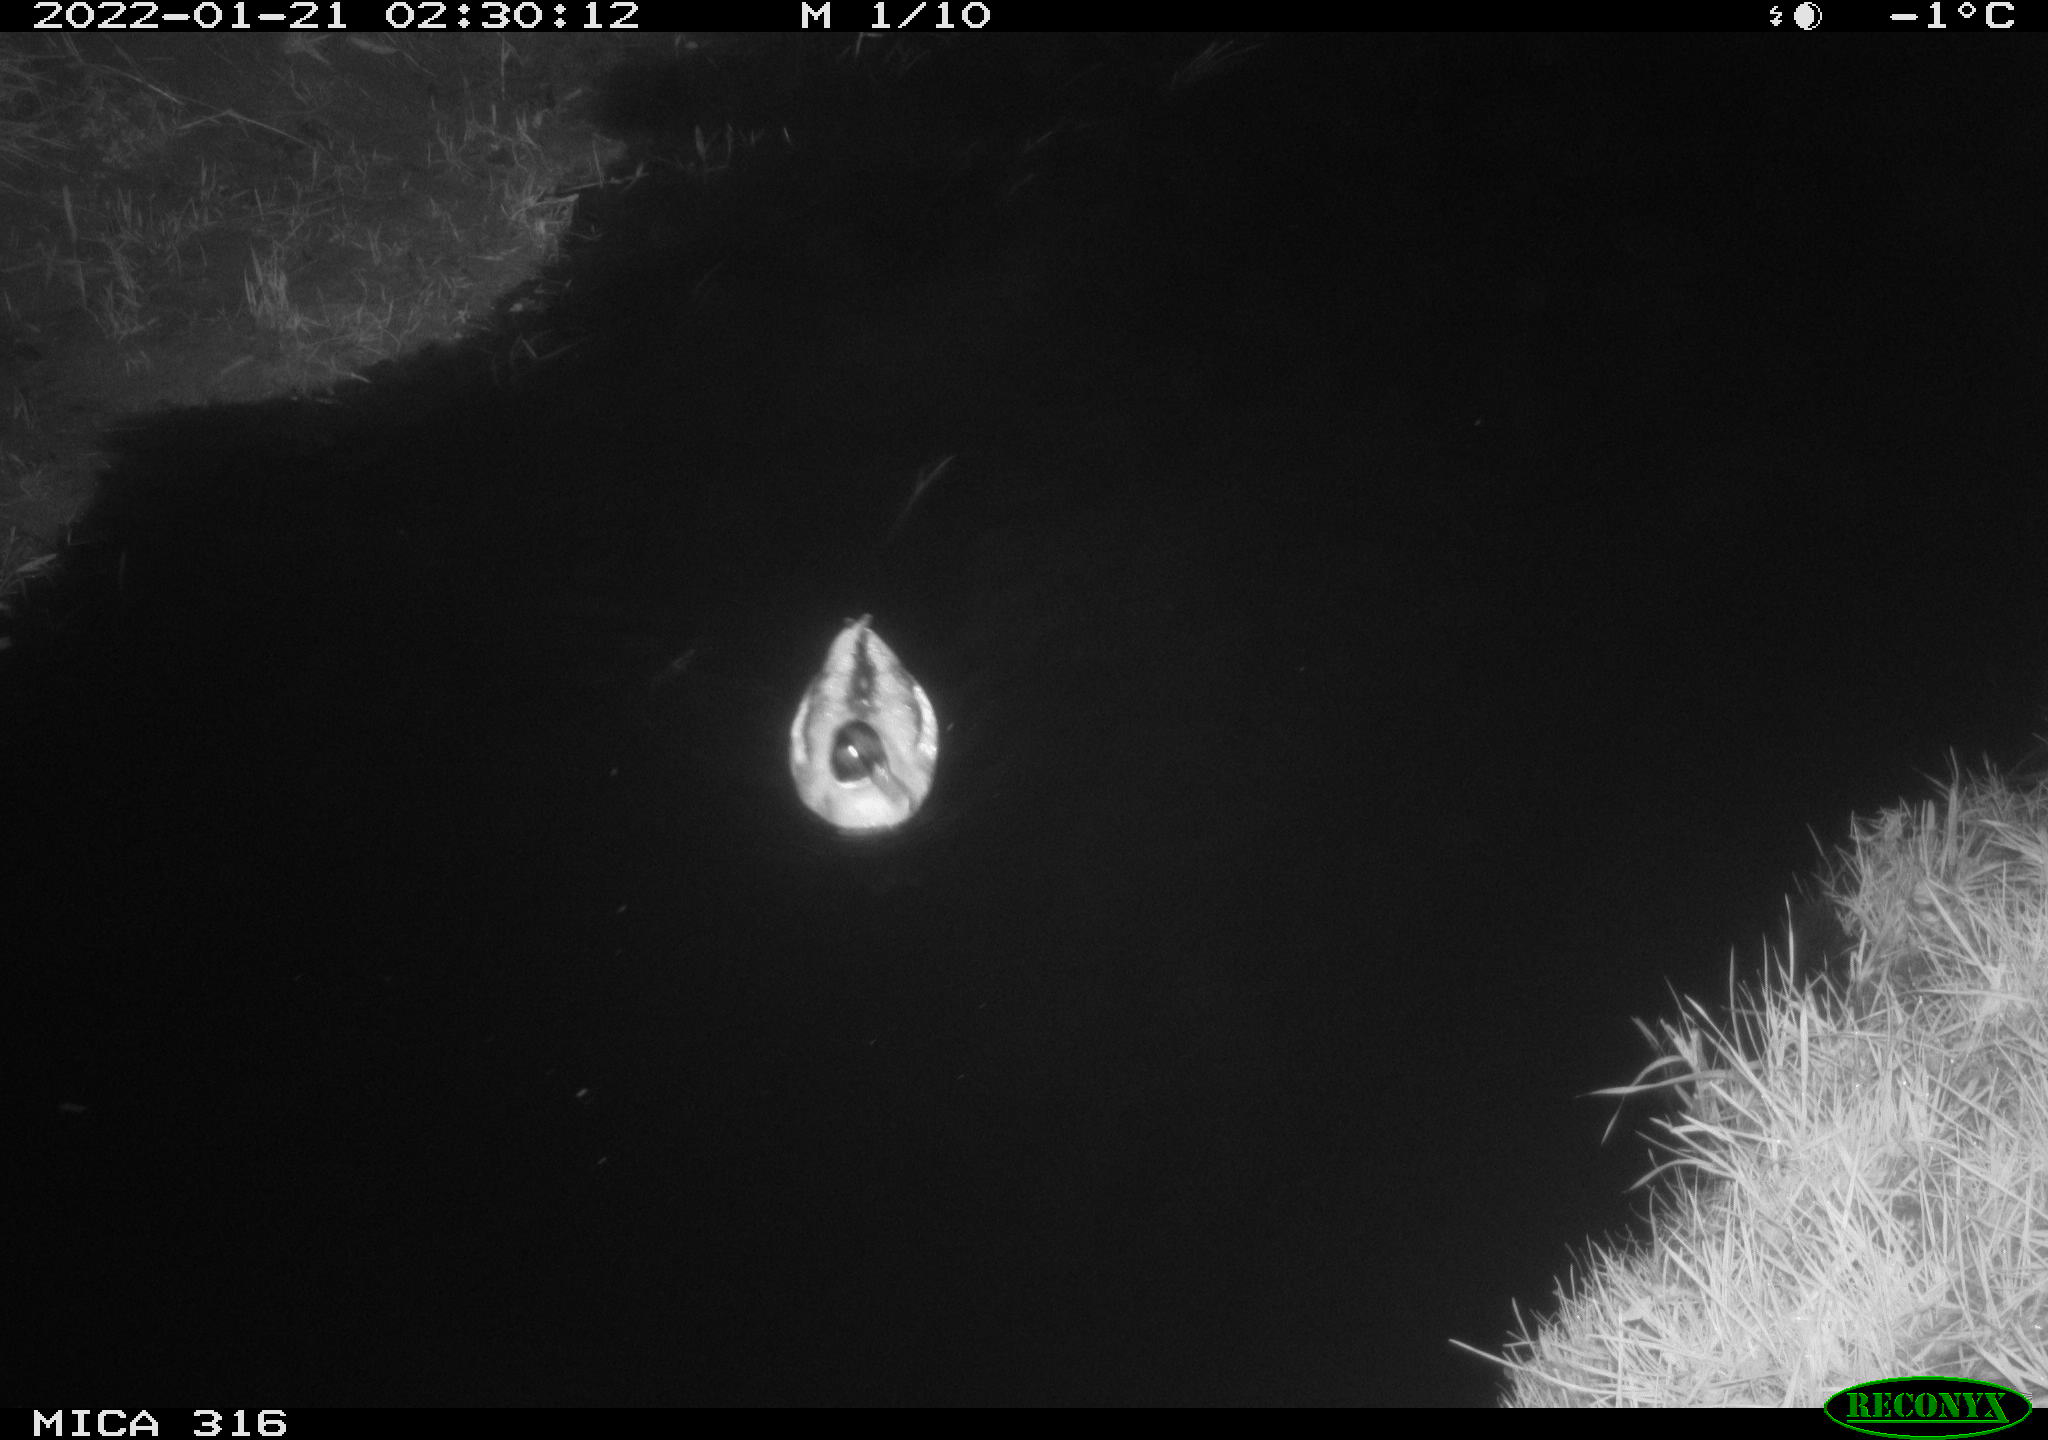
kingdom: Animalia
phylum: Chordata
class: Aves
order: Anseriformes
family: Anatidae
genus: Anas
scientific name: Anas platyrhynchos
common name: Mallard
